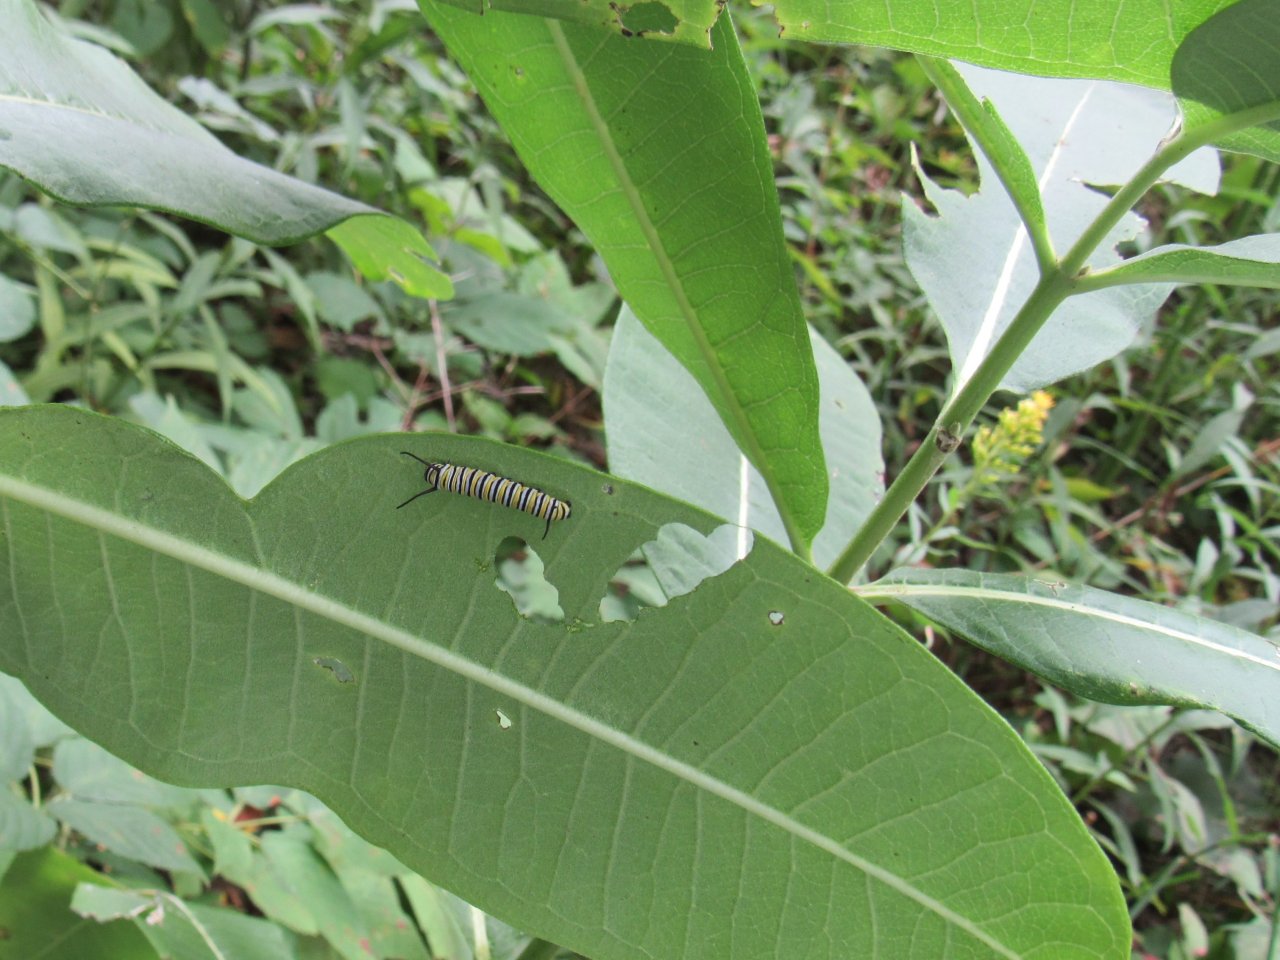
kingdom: Animalia
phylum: Arthropoda
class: Insecta
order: Lepidoptera
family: Nymphalidae
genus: Danaus
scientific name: Danaus plexippus
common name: Monarch
